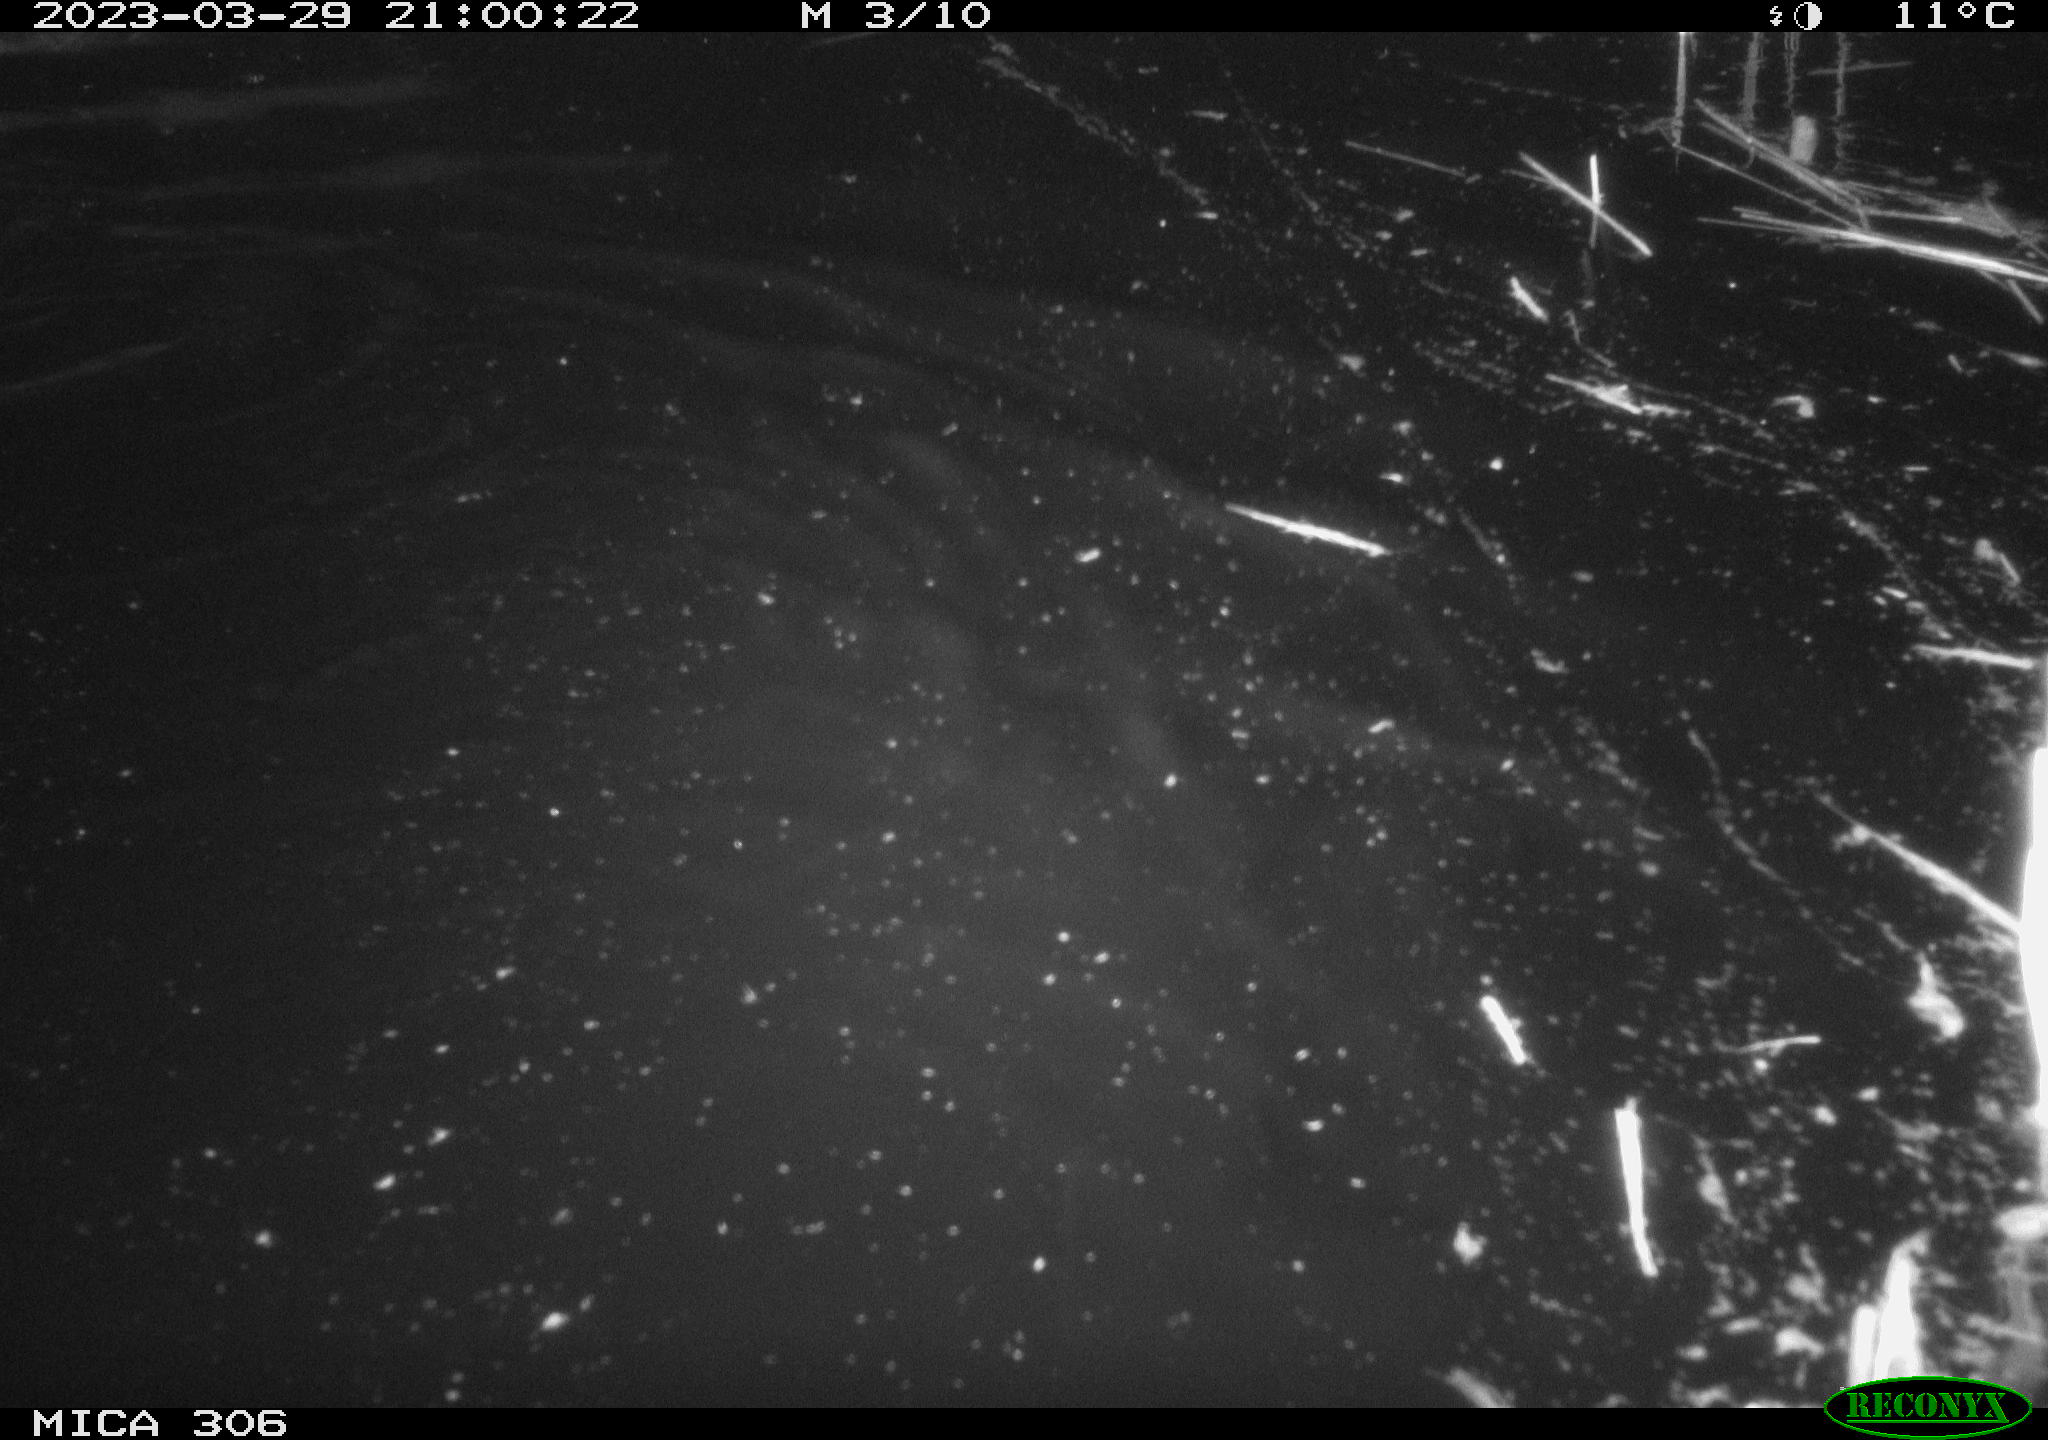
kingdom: Animalia
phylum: Chordata
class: Mammalia
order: Rodentia
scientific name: Rodentia
